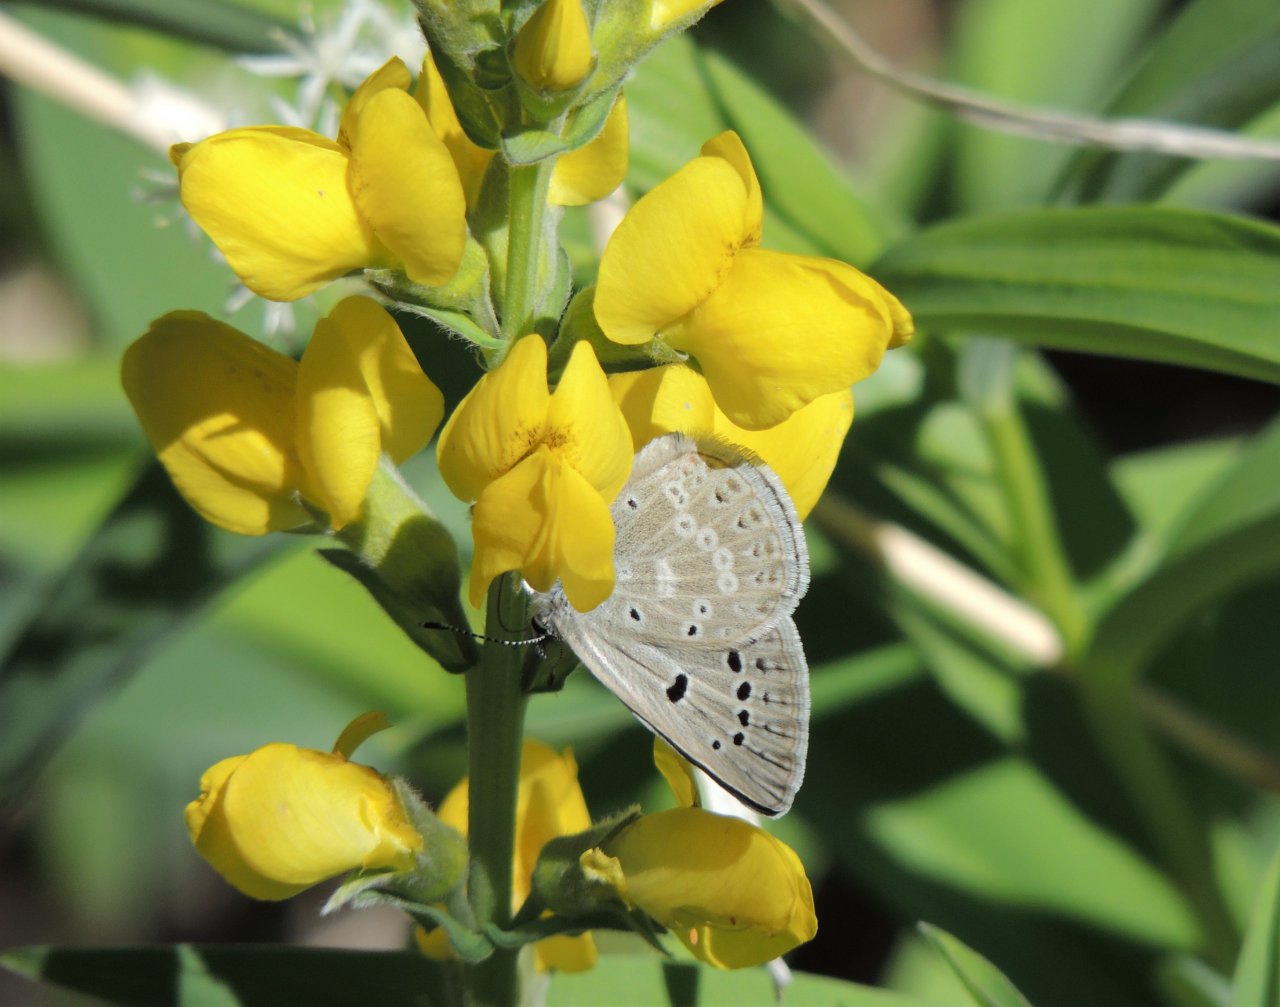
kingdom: Animalia
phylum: Arthropoda
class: Insecta
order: Lepidoptera
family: Lycaenidae
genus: Icaricia
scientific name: Icaricia icarioides
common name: Boisduval's Blue
